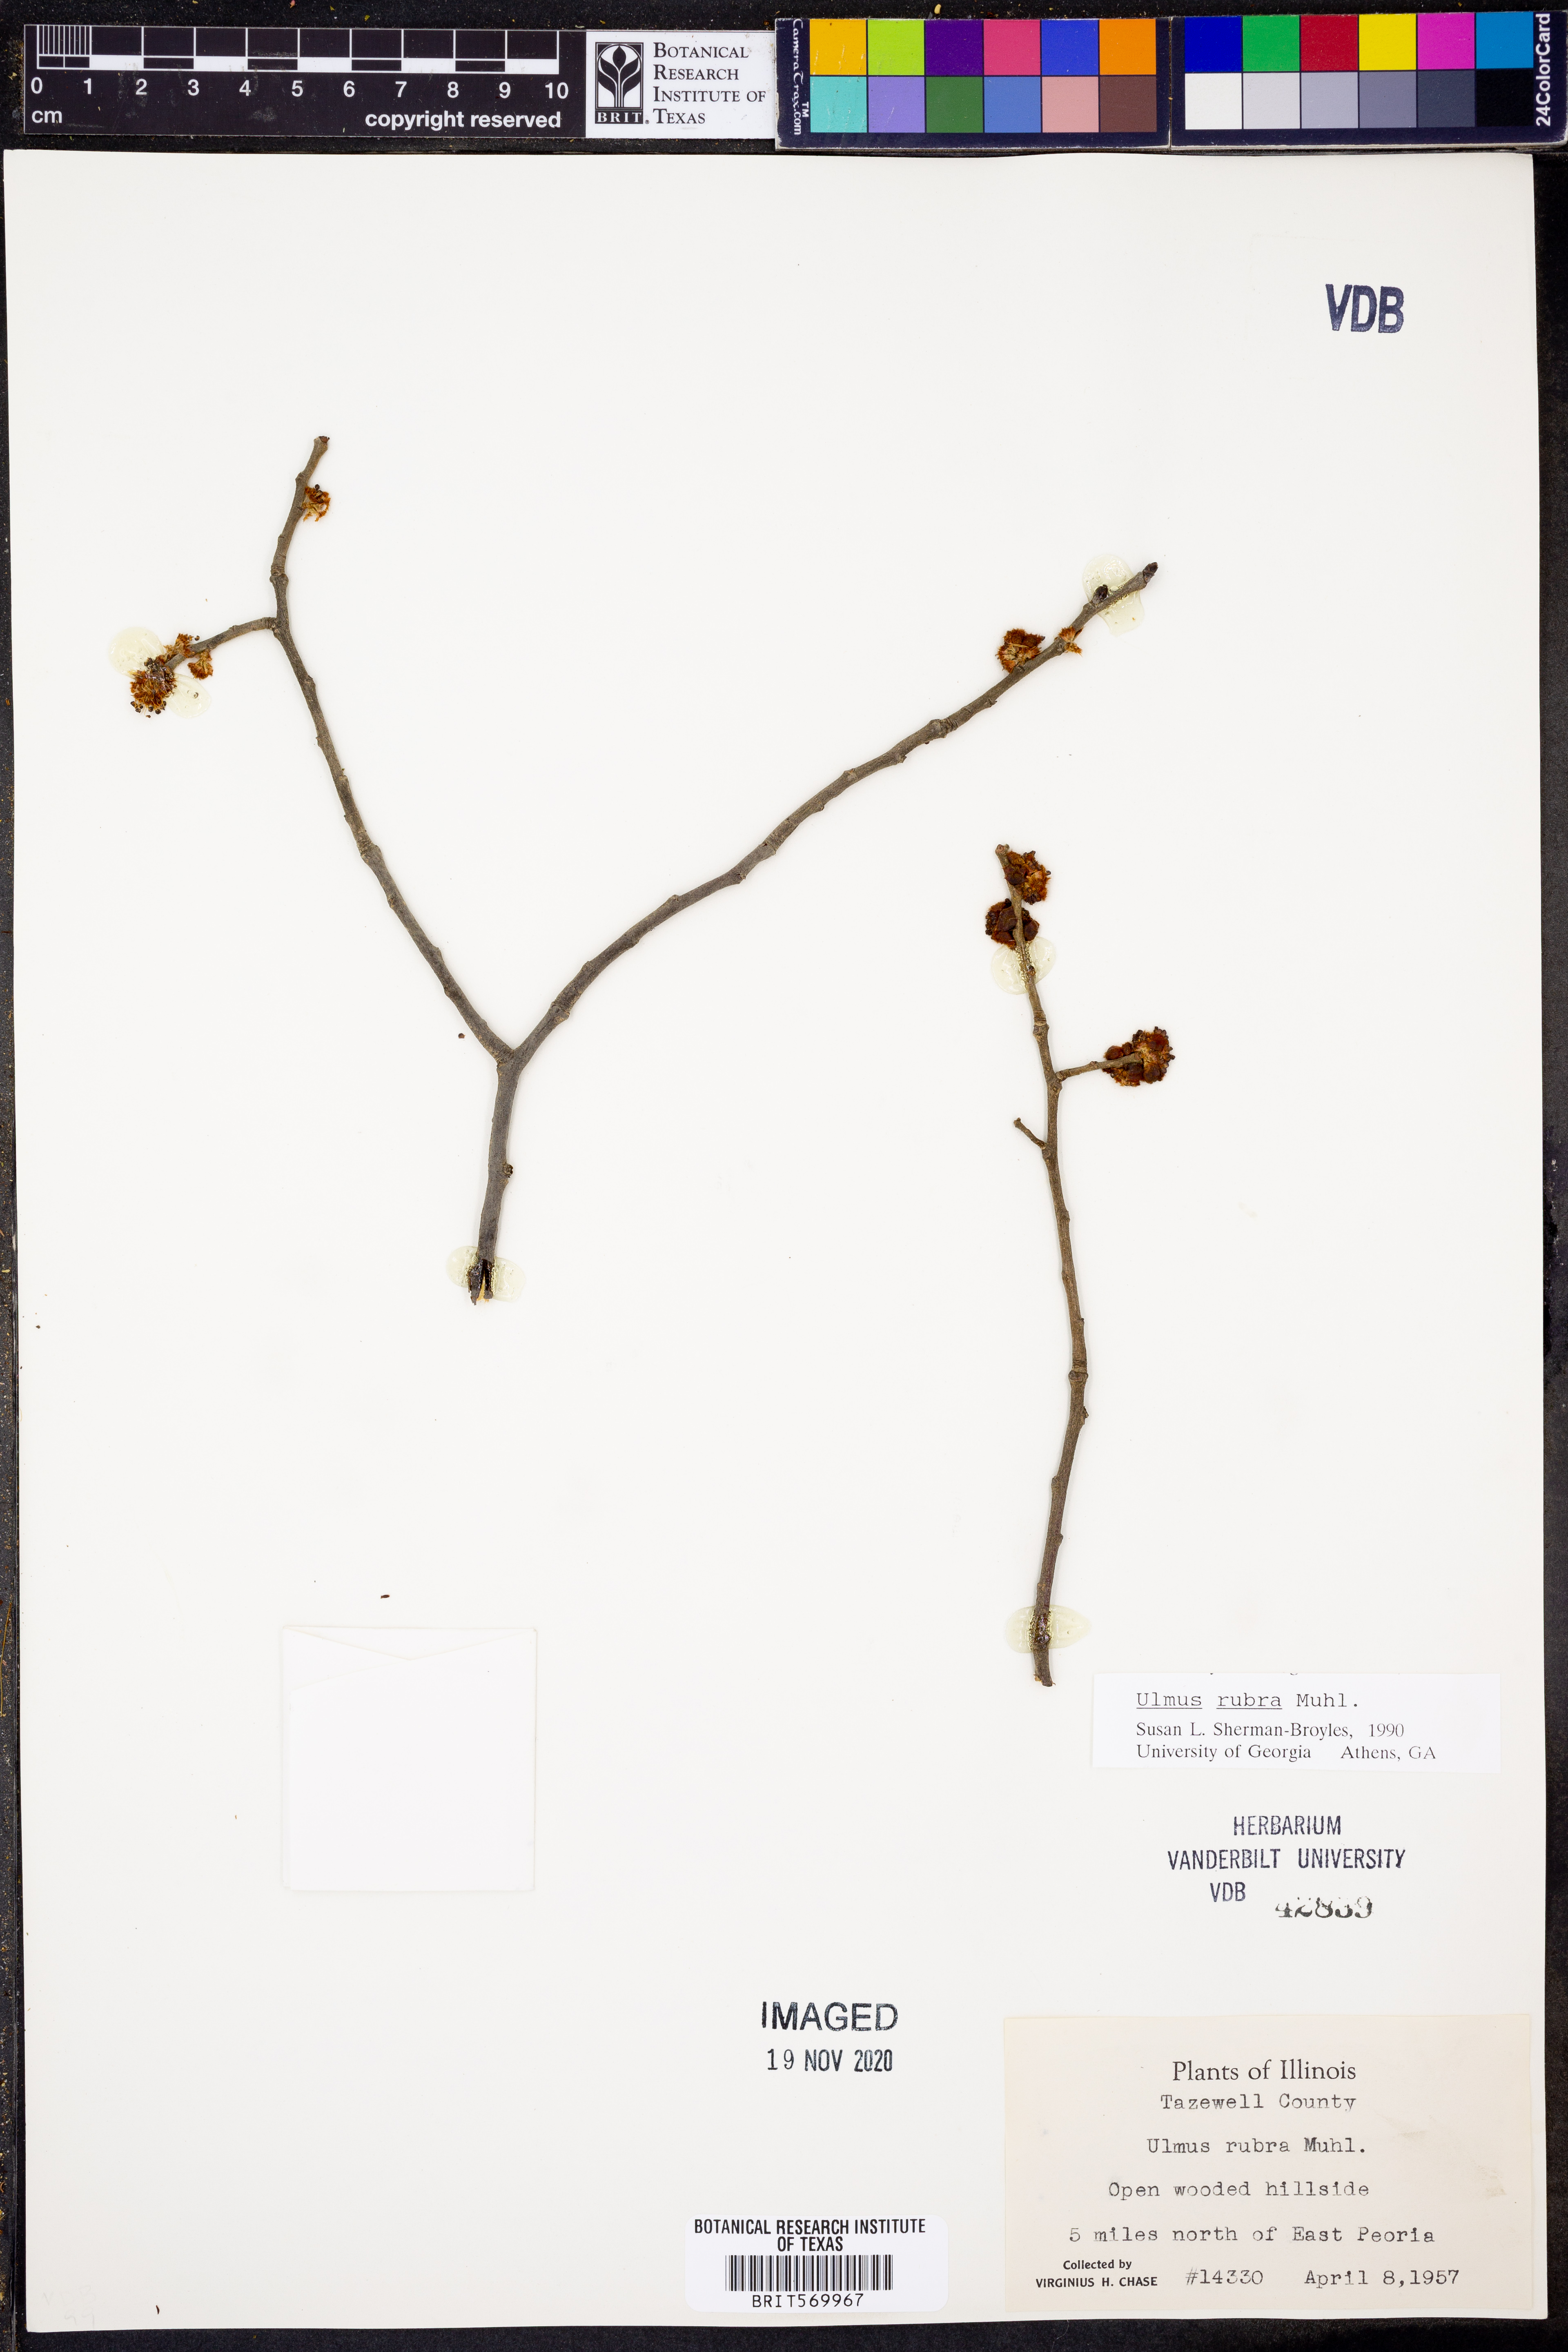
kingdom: Plantae
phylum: Tracheophyta
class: Magnoliopsida
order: Rosales
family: Ulmaceae
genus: Ulmus
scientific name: Ulmus rubra
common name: Slippery elm
